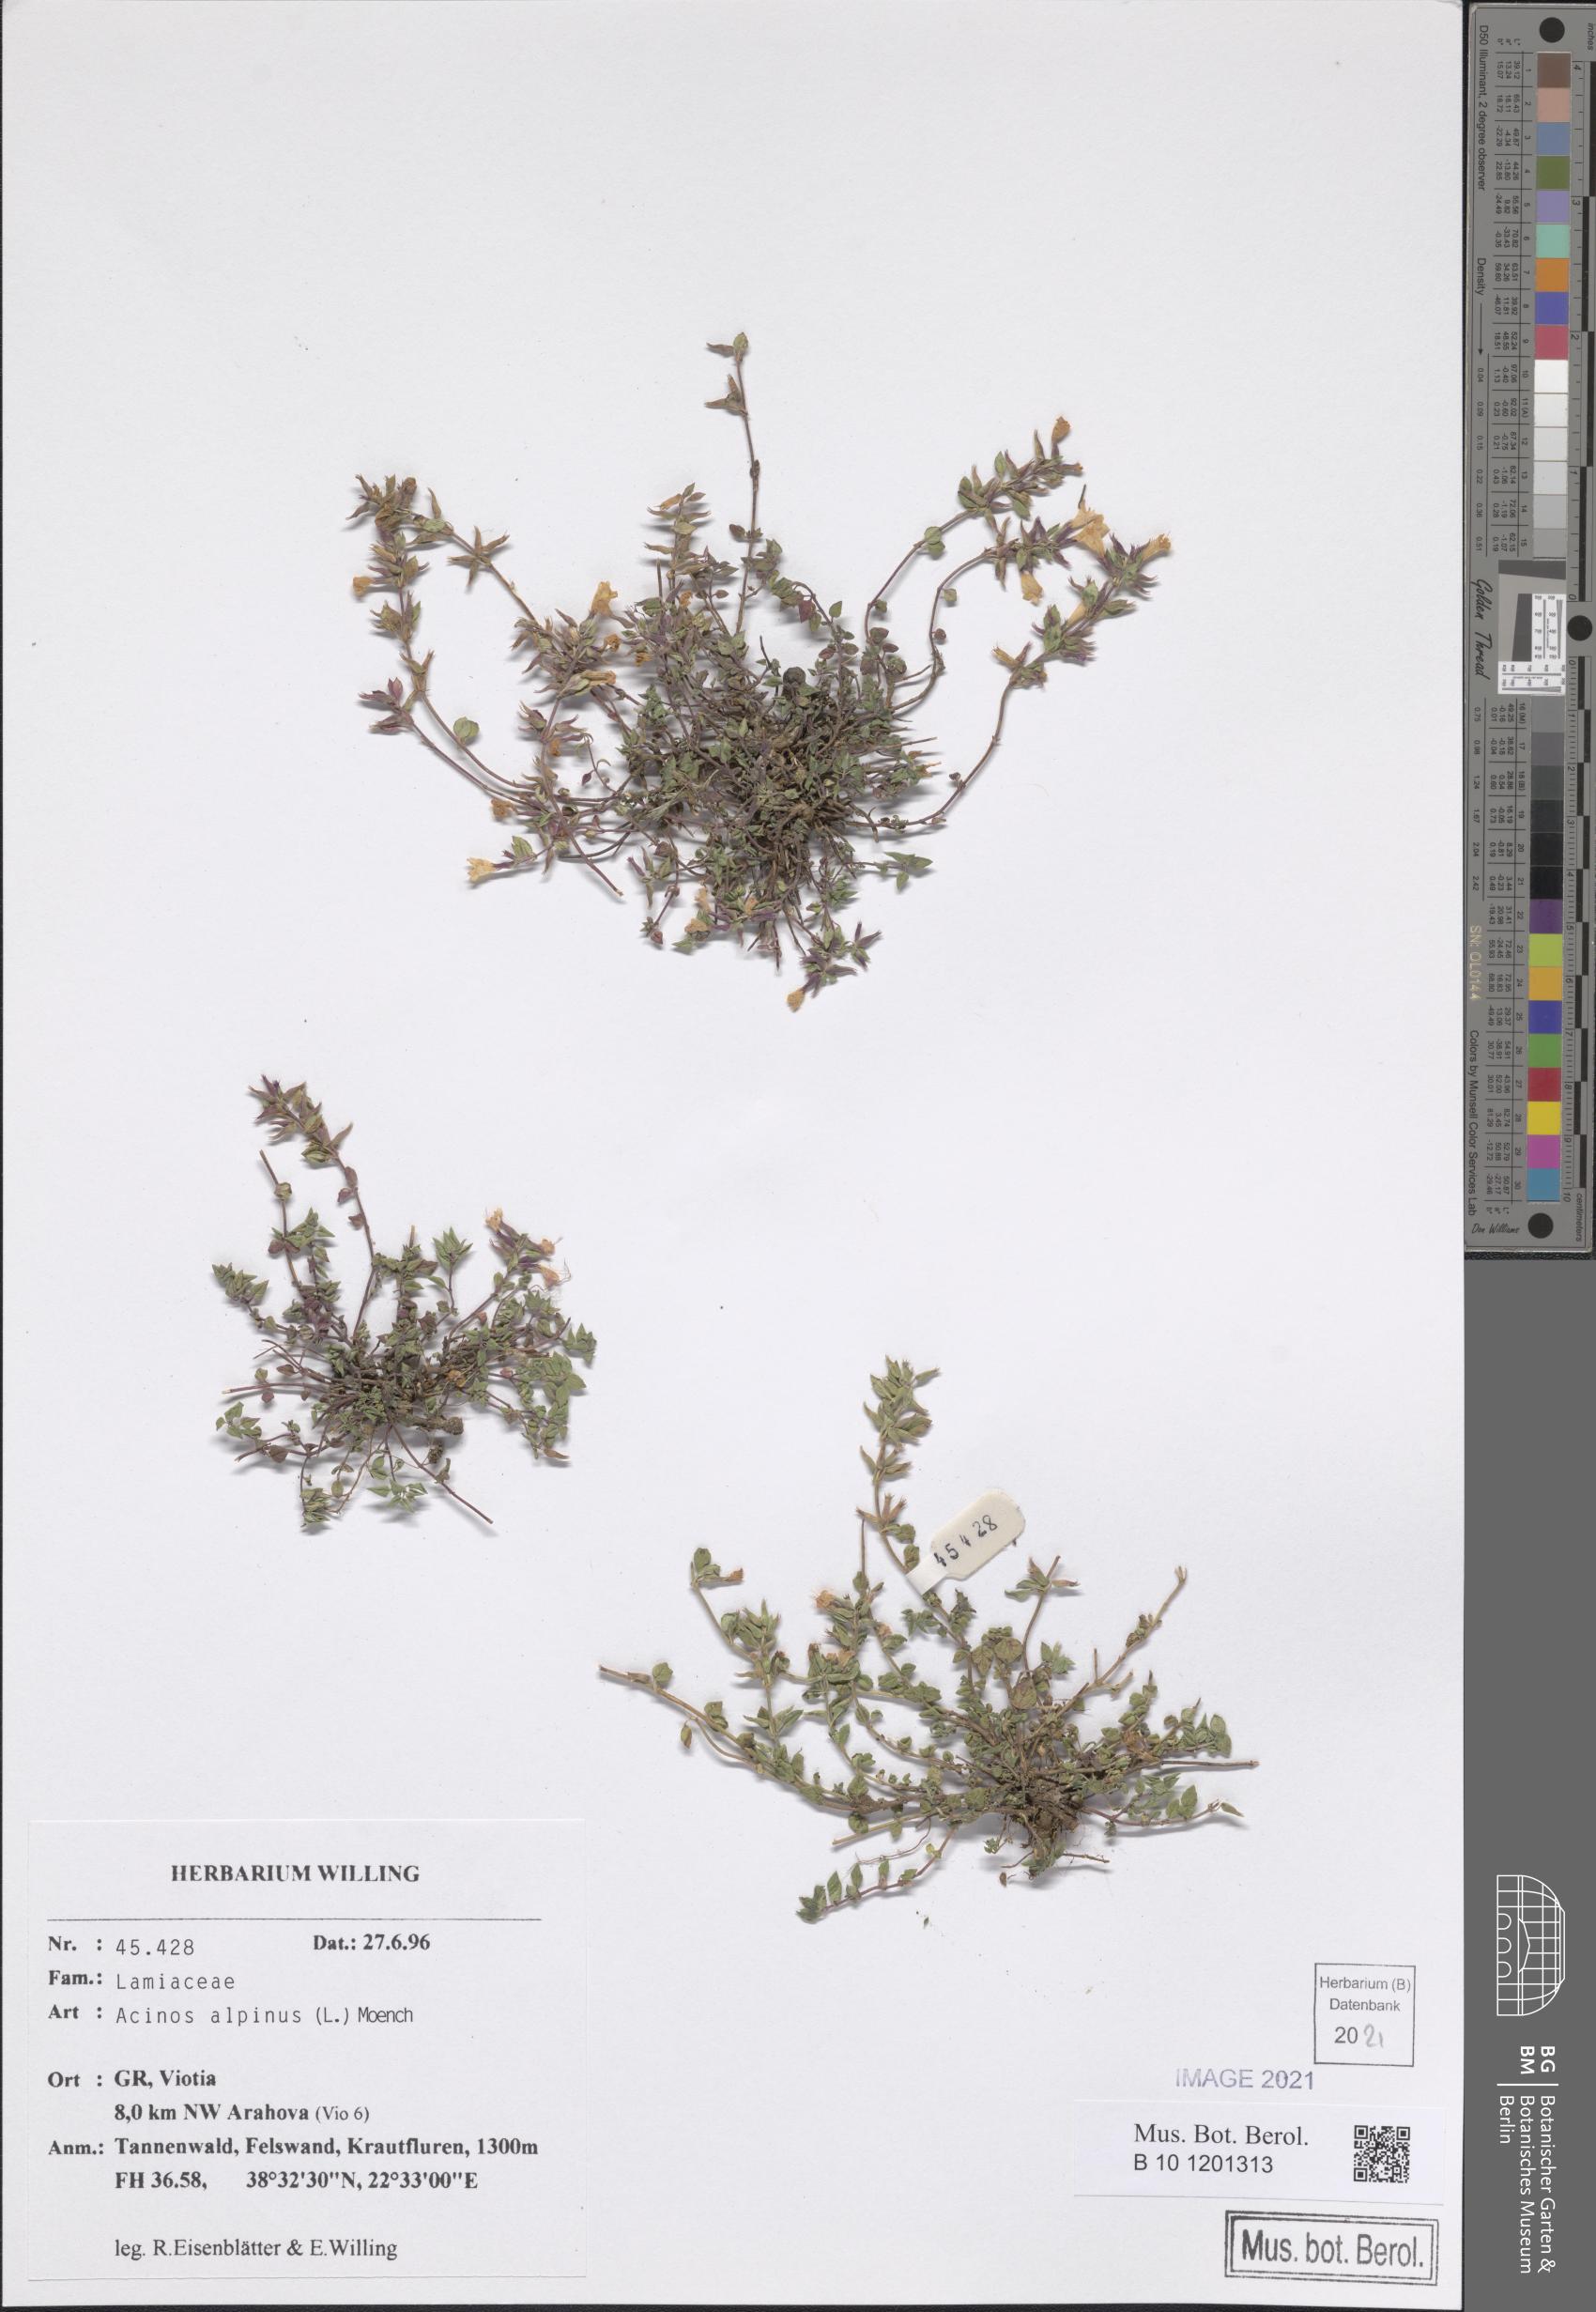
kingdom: Plantae
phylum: Tracheophyta
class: Magnoliopsida
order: Lamiales
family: Lamiaceae
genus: Clinopodium
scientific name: Clinopodium alpinum
